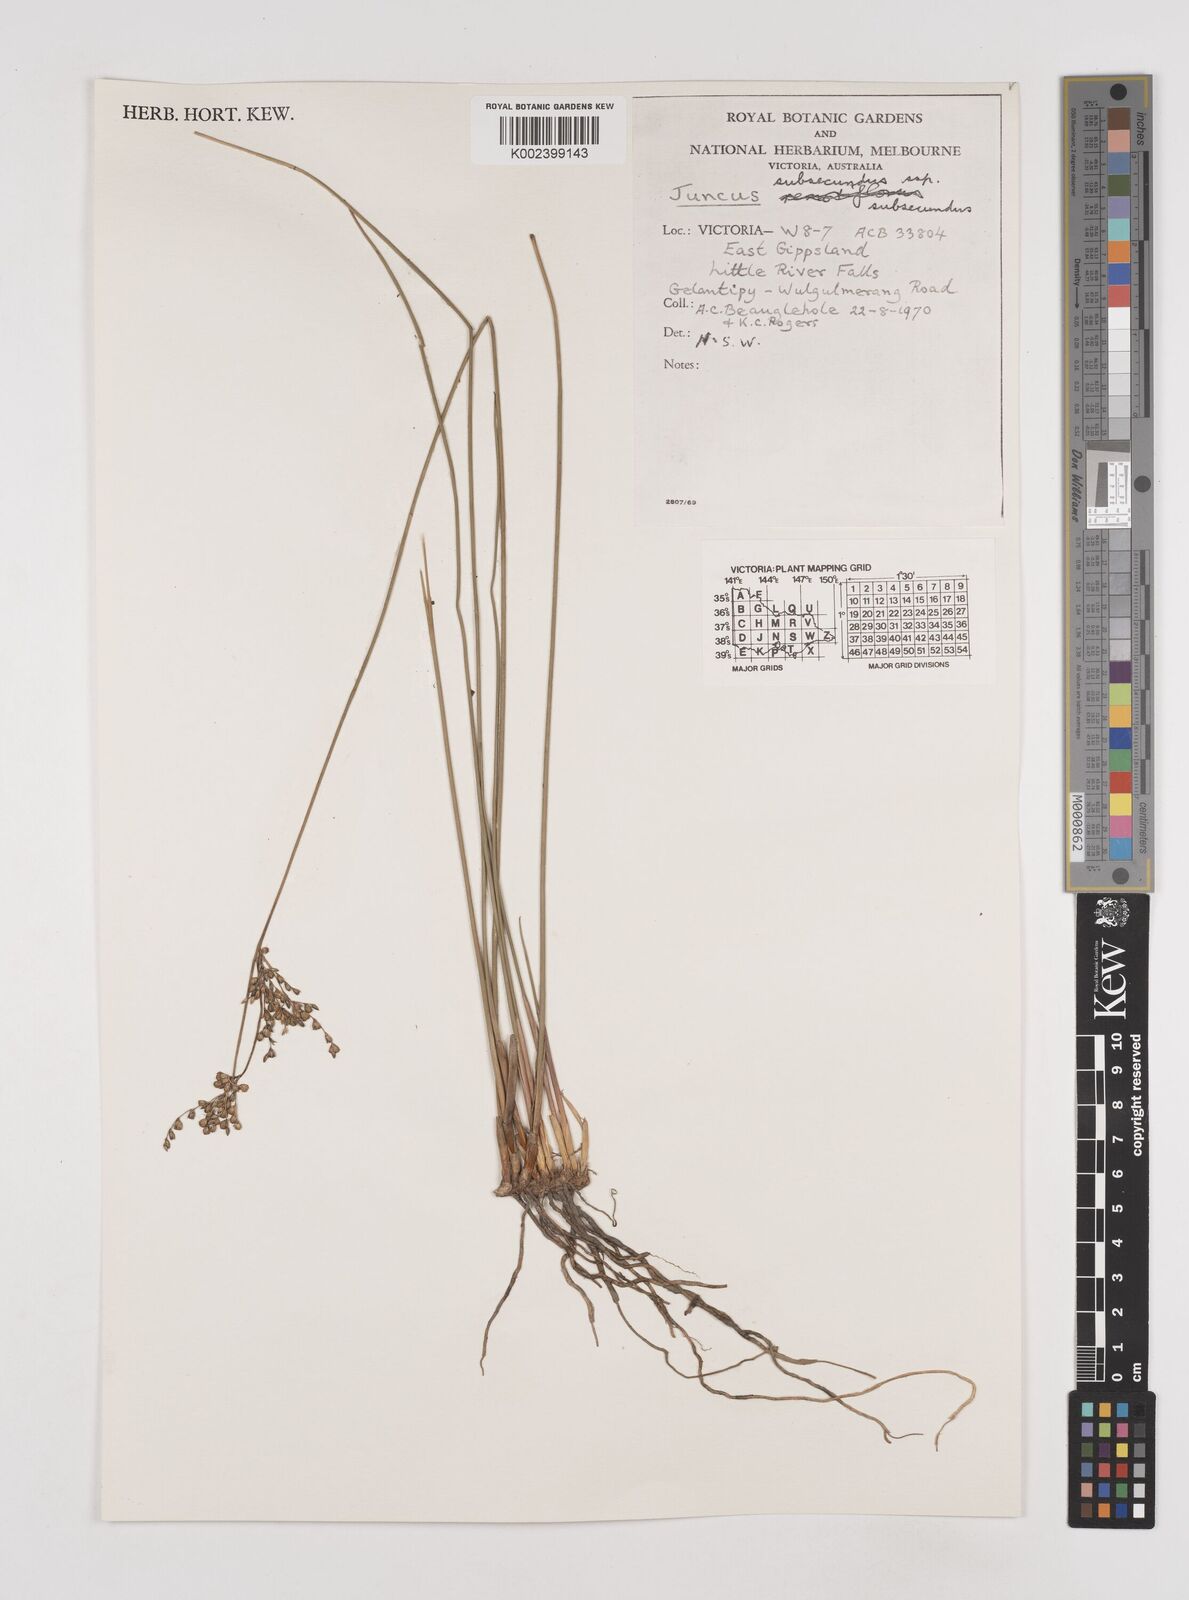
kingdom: Plantae
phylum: Tracheophyta
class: Liliopsida
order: Poales
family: Juncaceae
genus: Juncus
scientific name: Juncus subsecundus
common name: Fingered rush
